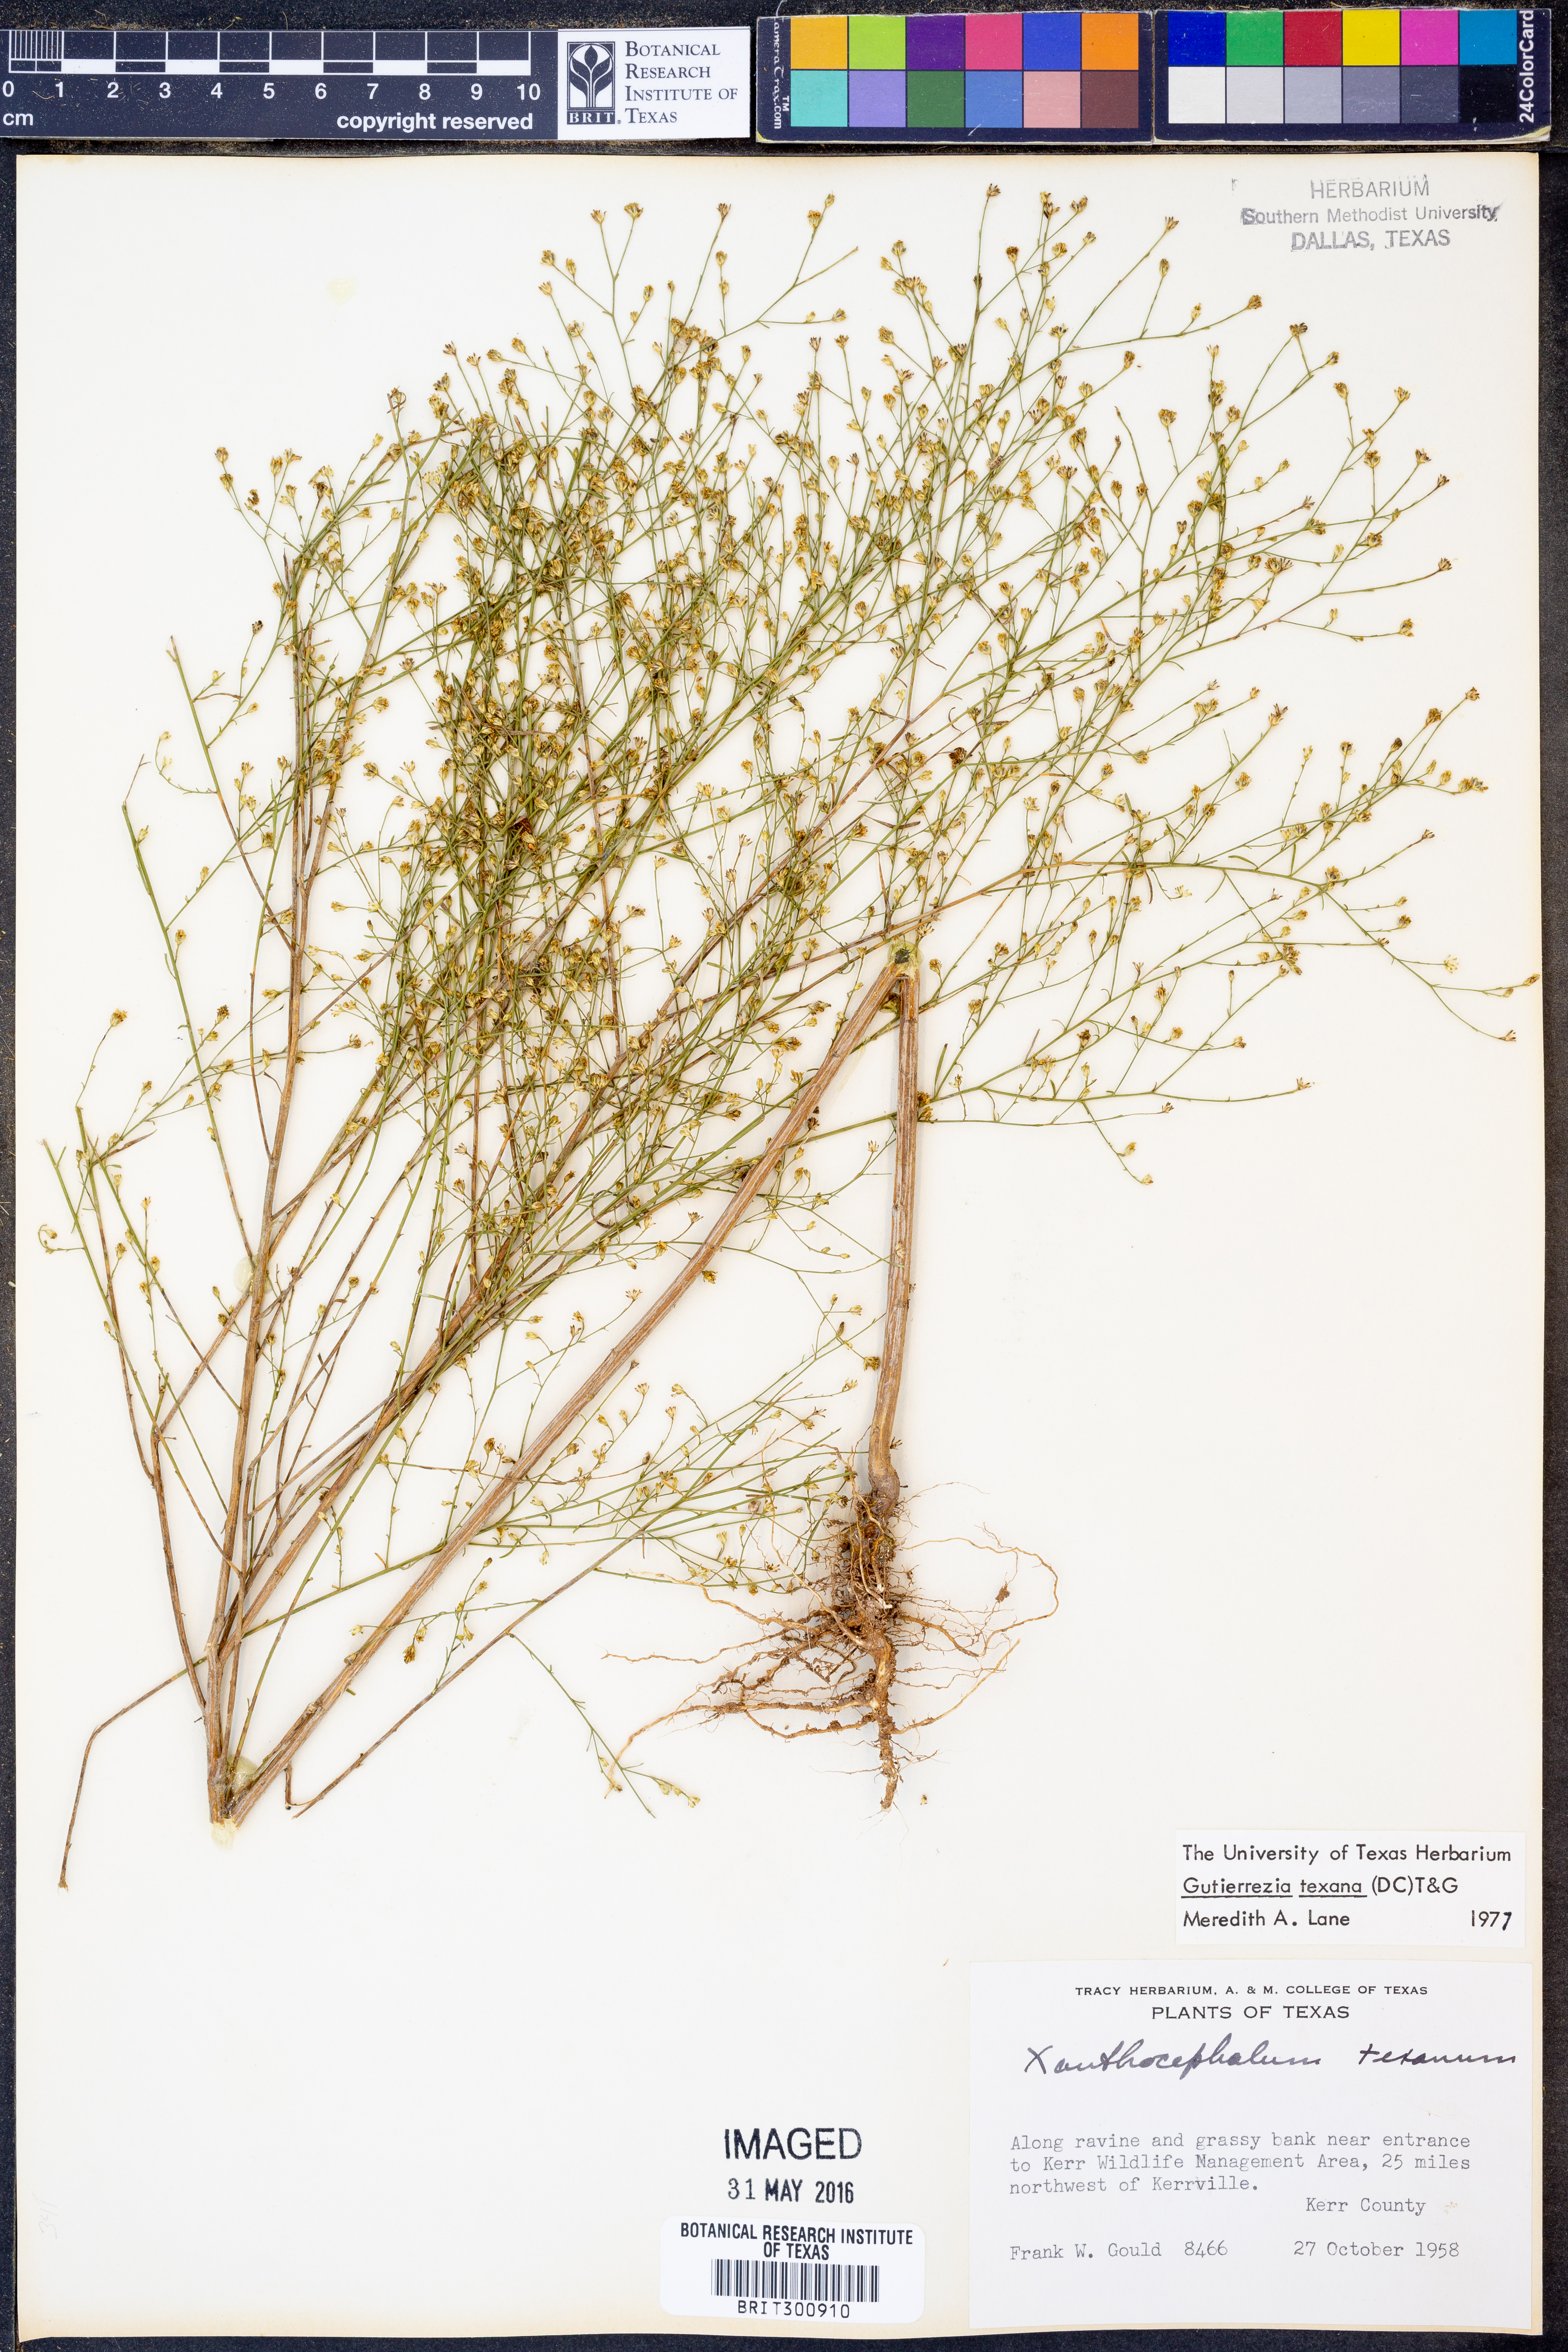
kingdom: Plantae
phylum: Tracheophyta
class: Magnoliopsida
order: Asterales
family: Asteraceae
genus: Gutierrezia
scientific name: Gutierrezia texana
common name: Texas snakeweed
